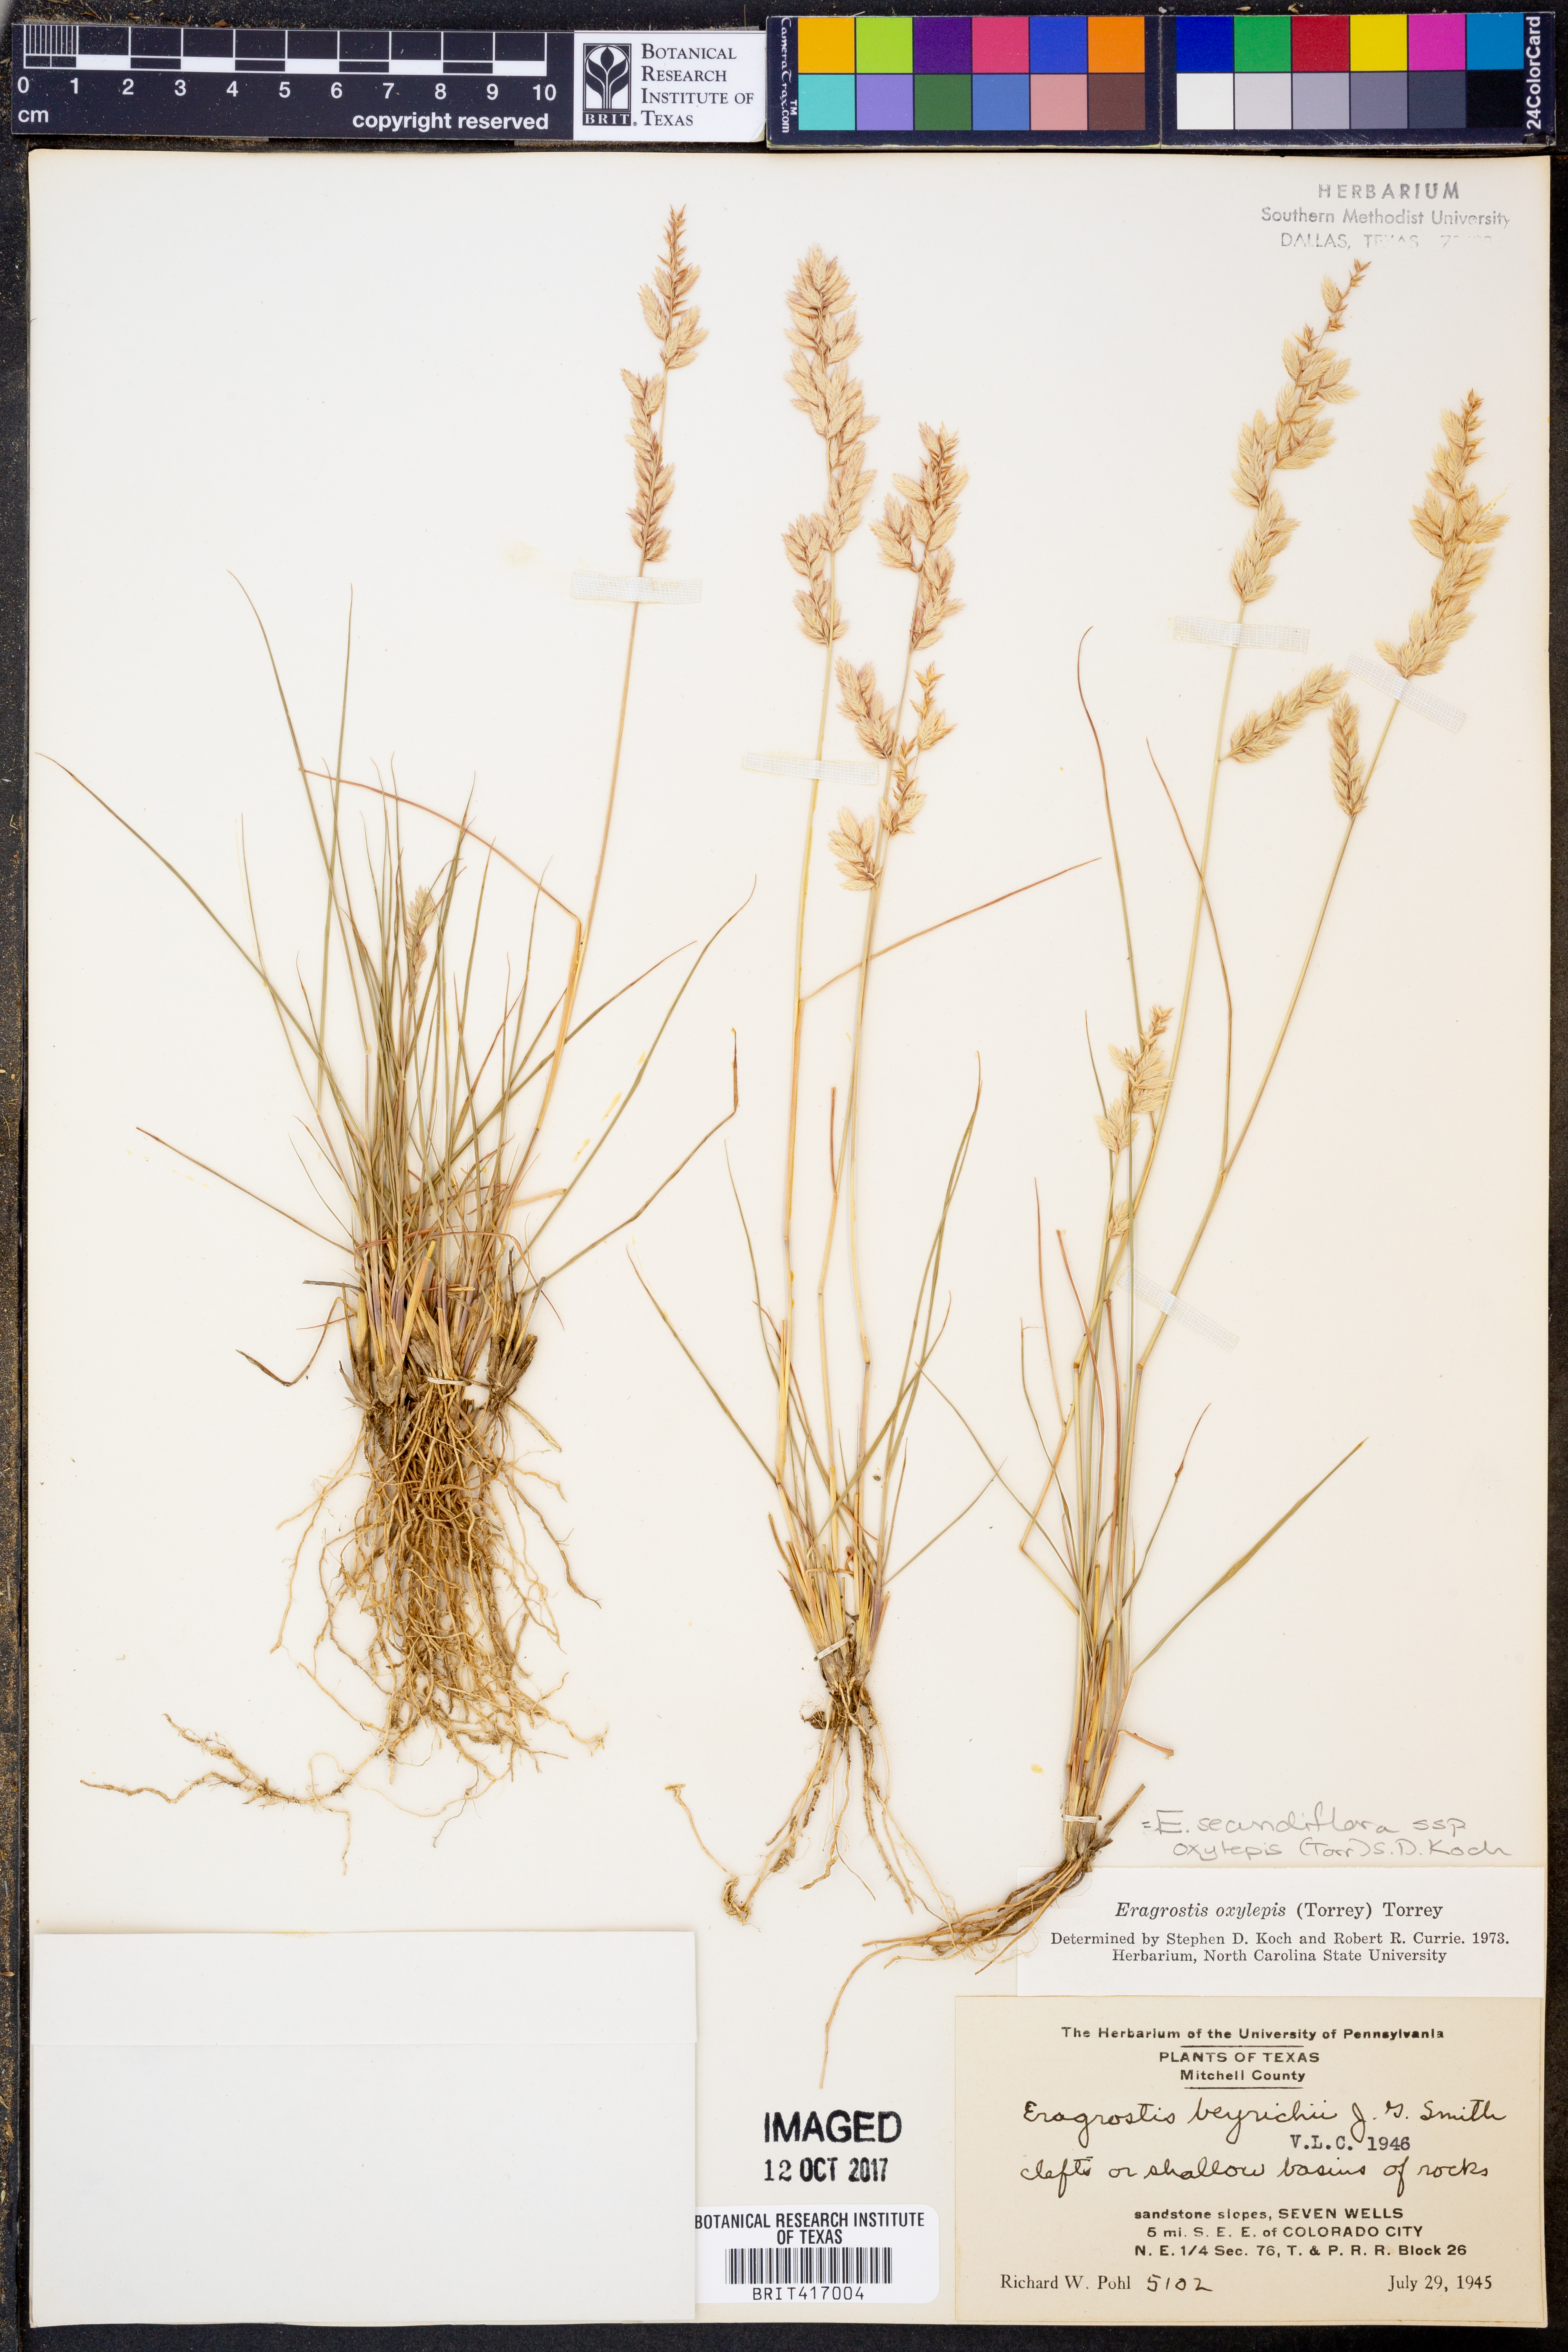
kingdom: Plantae
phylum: Tracheophyta
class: Liliopsida
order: Poales
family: Poaceae
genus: Eragrostis
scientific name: Eragrostis secundiflora
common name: Red love grass
